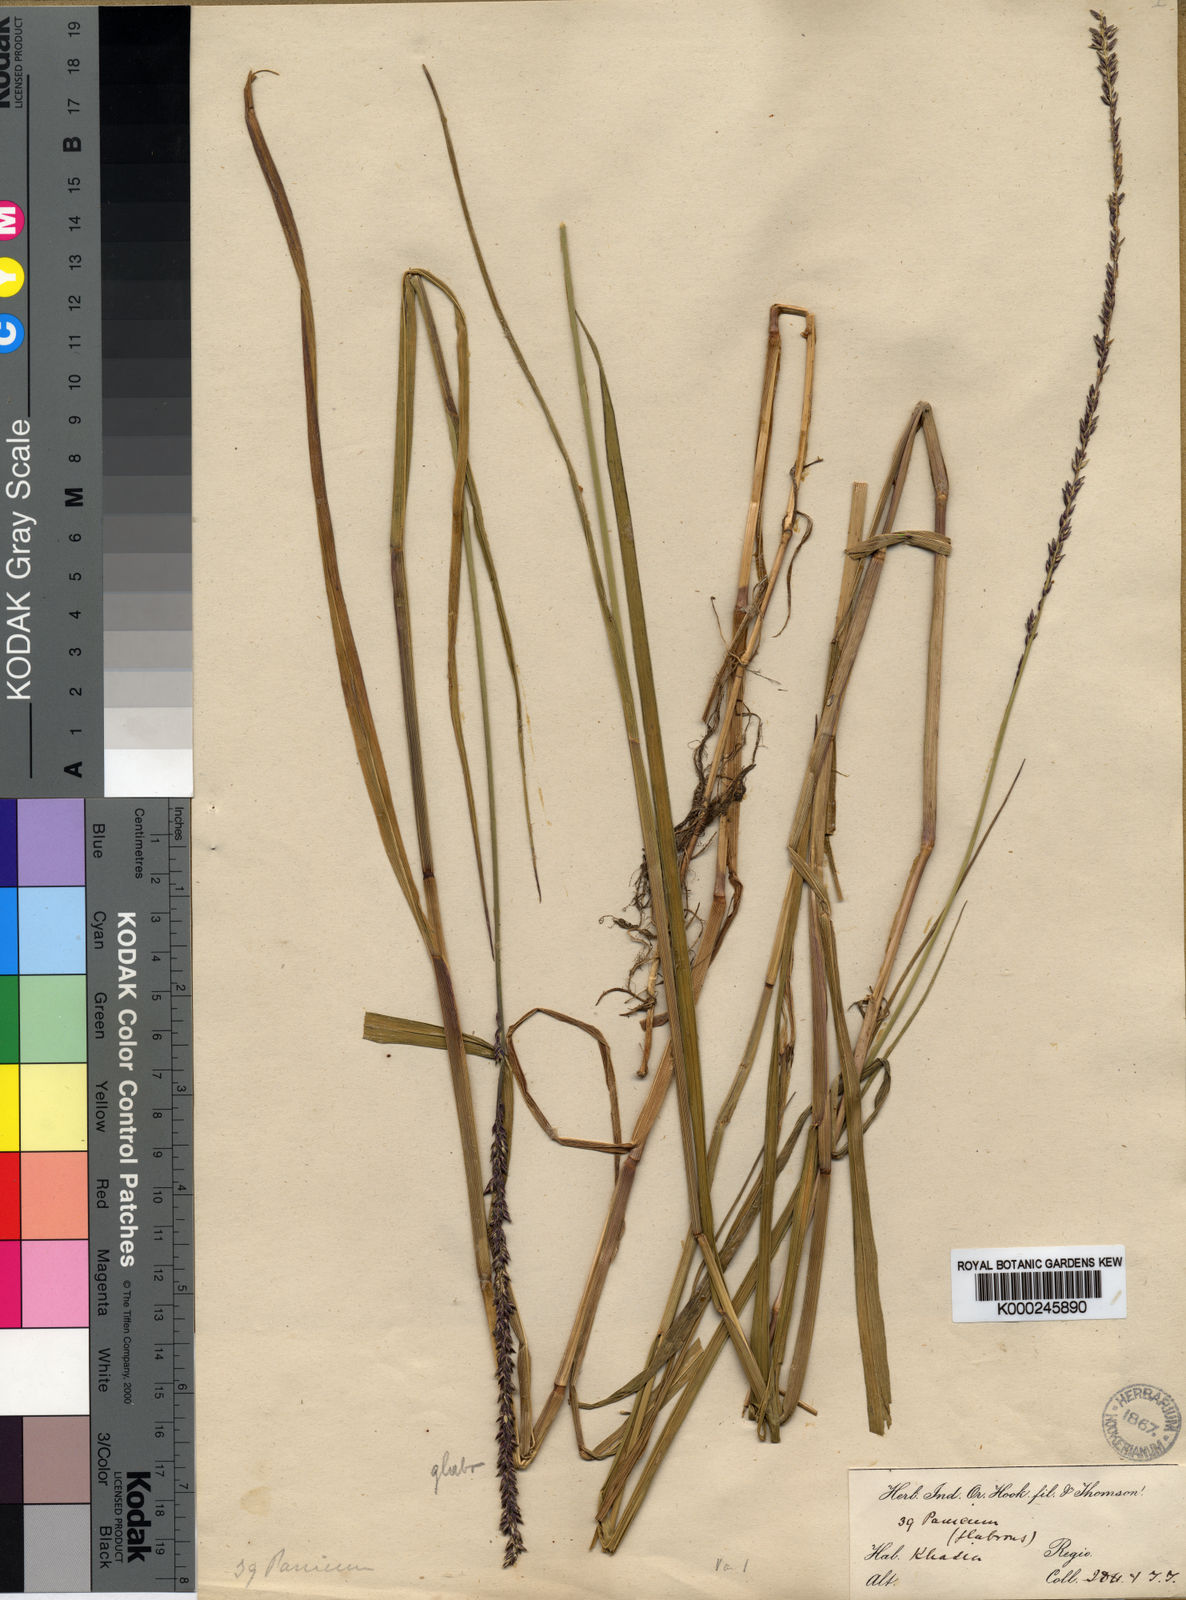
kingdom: Plantae
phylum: Tracheophyta
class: Liliopsida
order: Poales
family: Poaceae
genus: Sacciolepis
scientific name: Sacciolepis indica
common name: Glenwoodgrass
